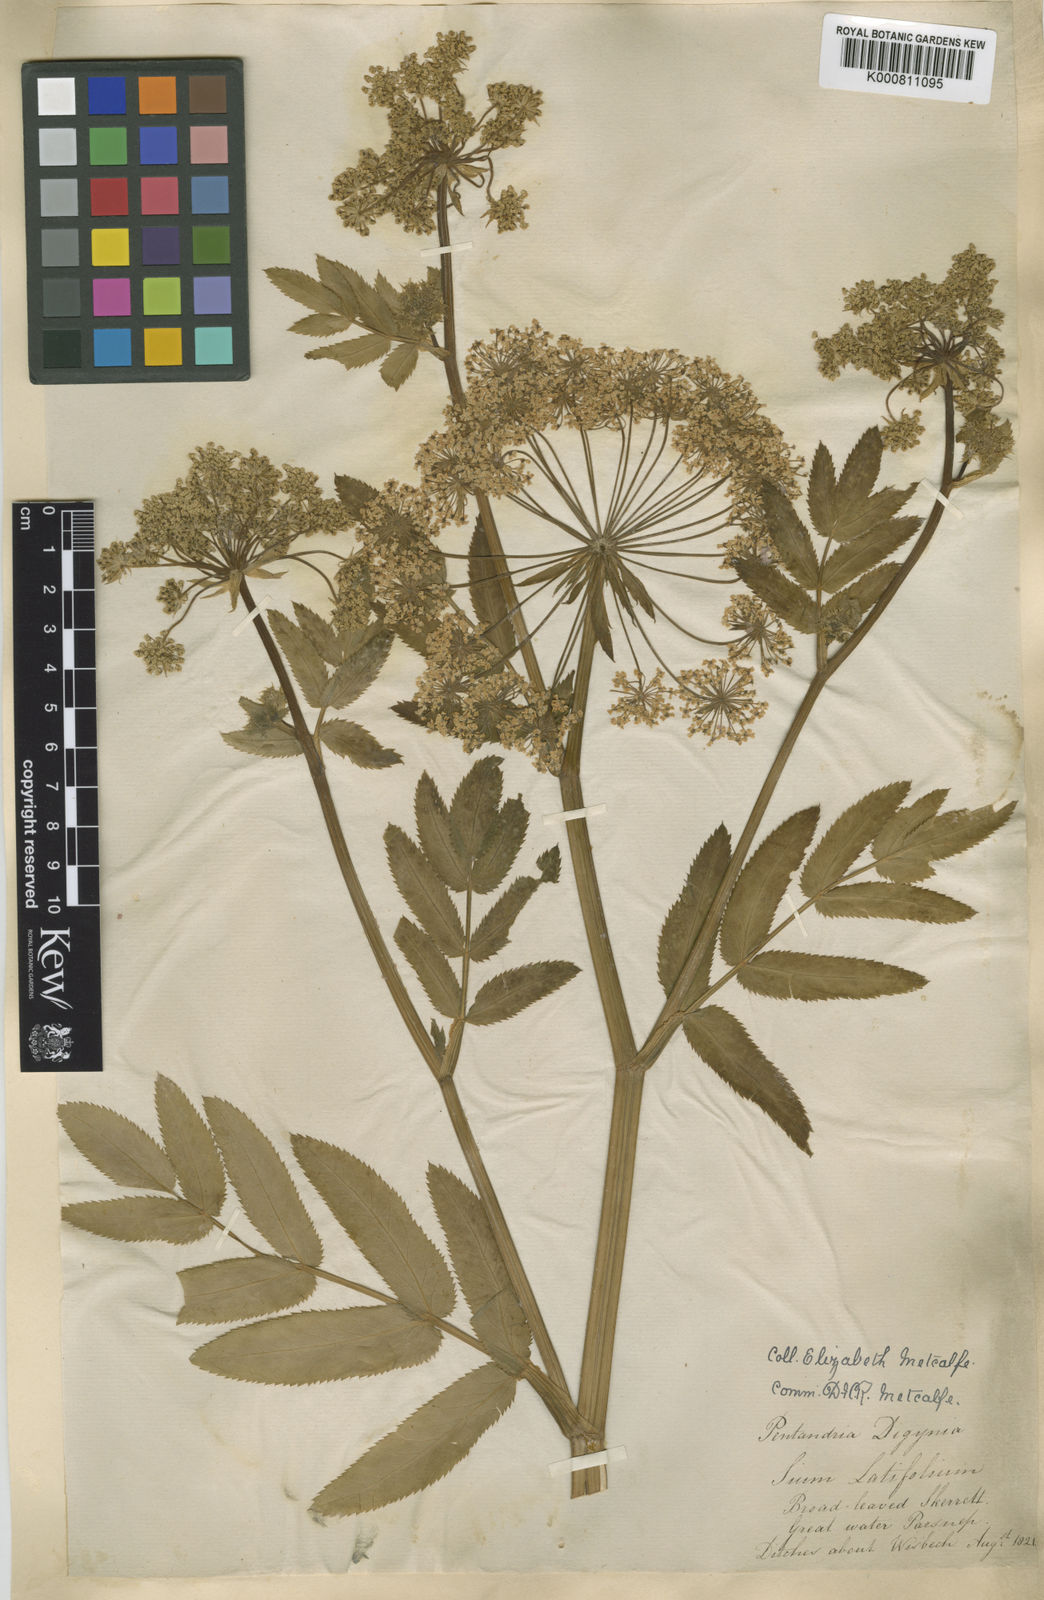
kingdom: Plantae
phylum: Tracheophyta
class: Magnoliopsida
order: Apiales
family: Apiaceae
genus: Sium
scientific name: Sium latifolium
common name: Greater water-parsnip
